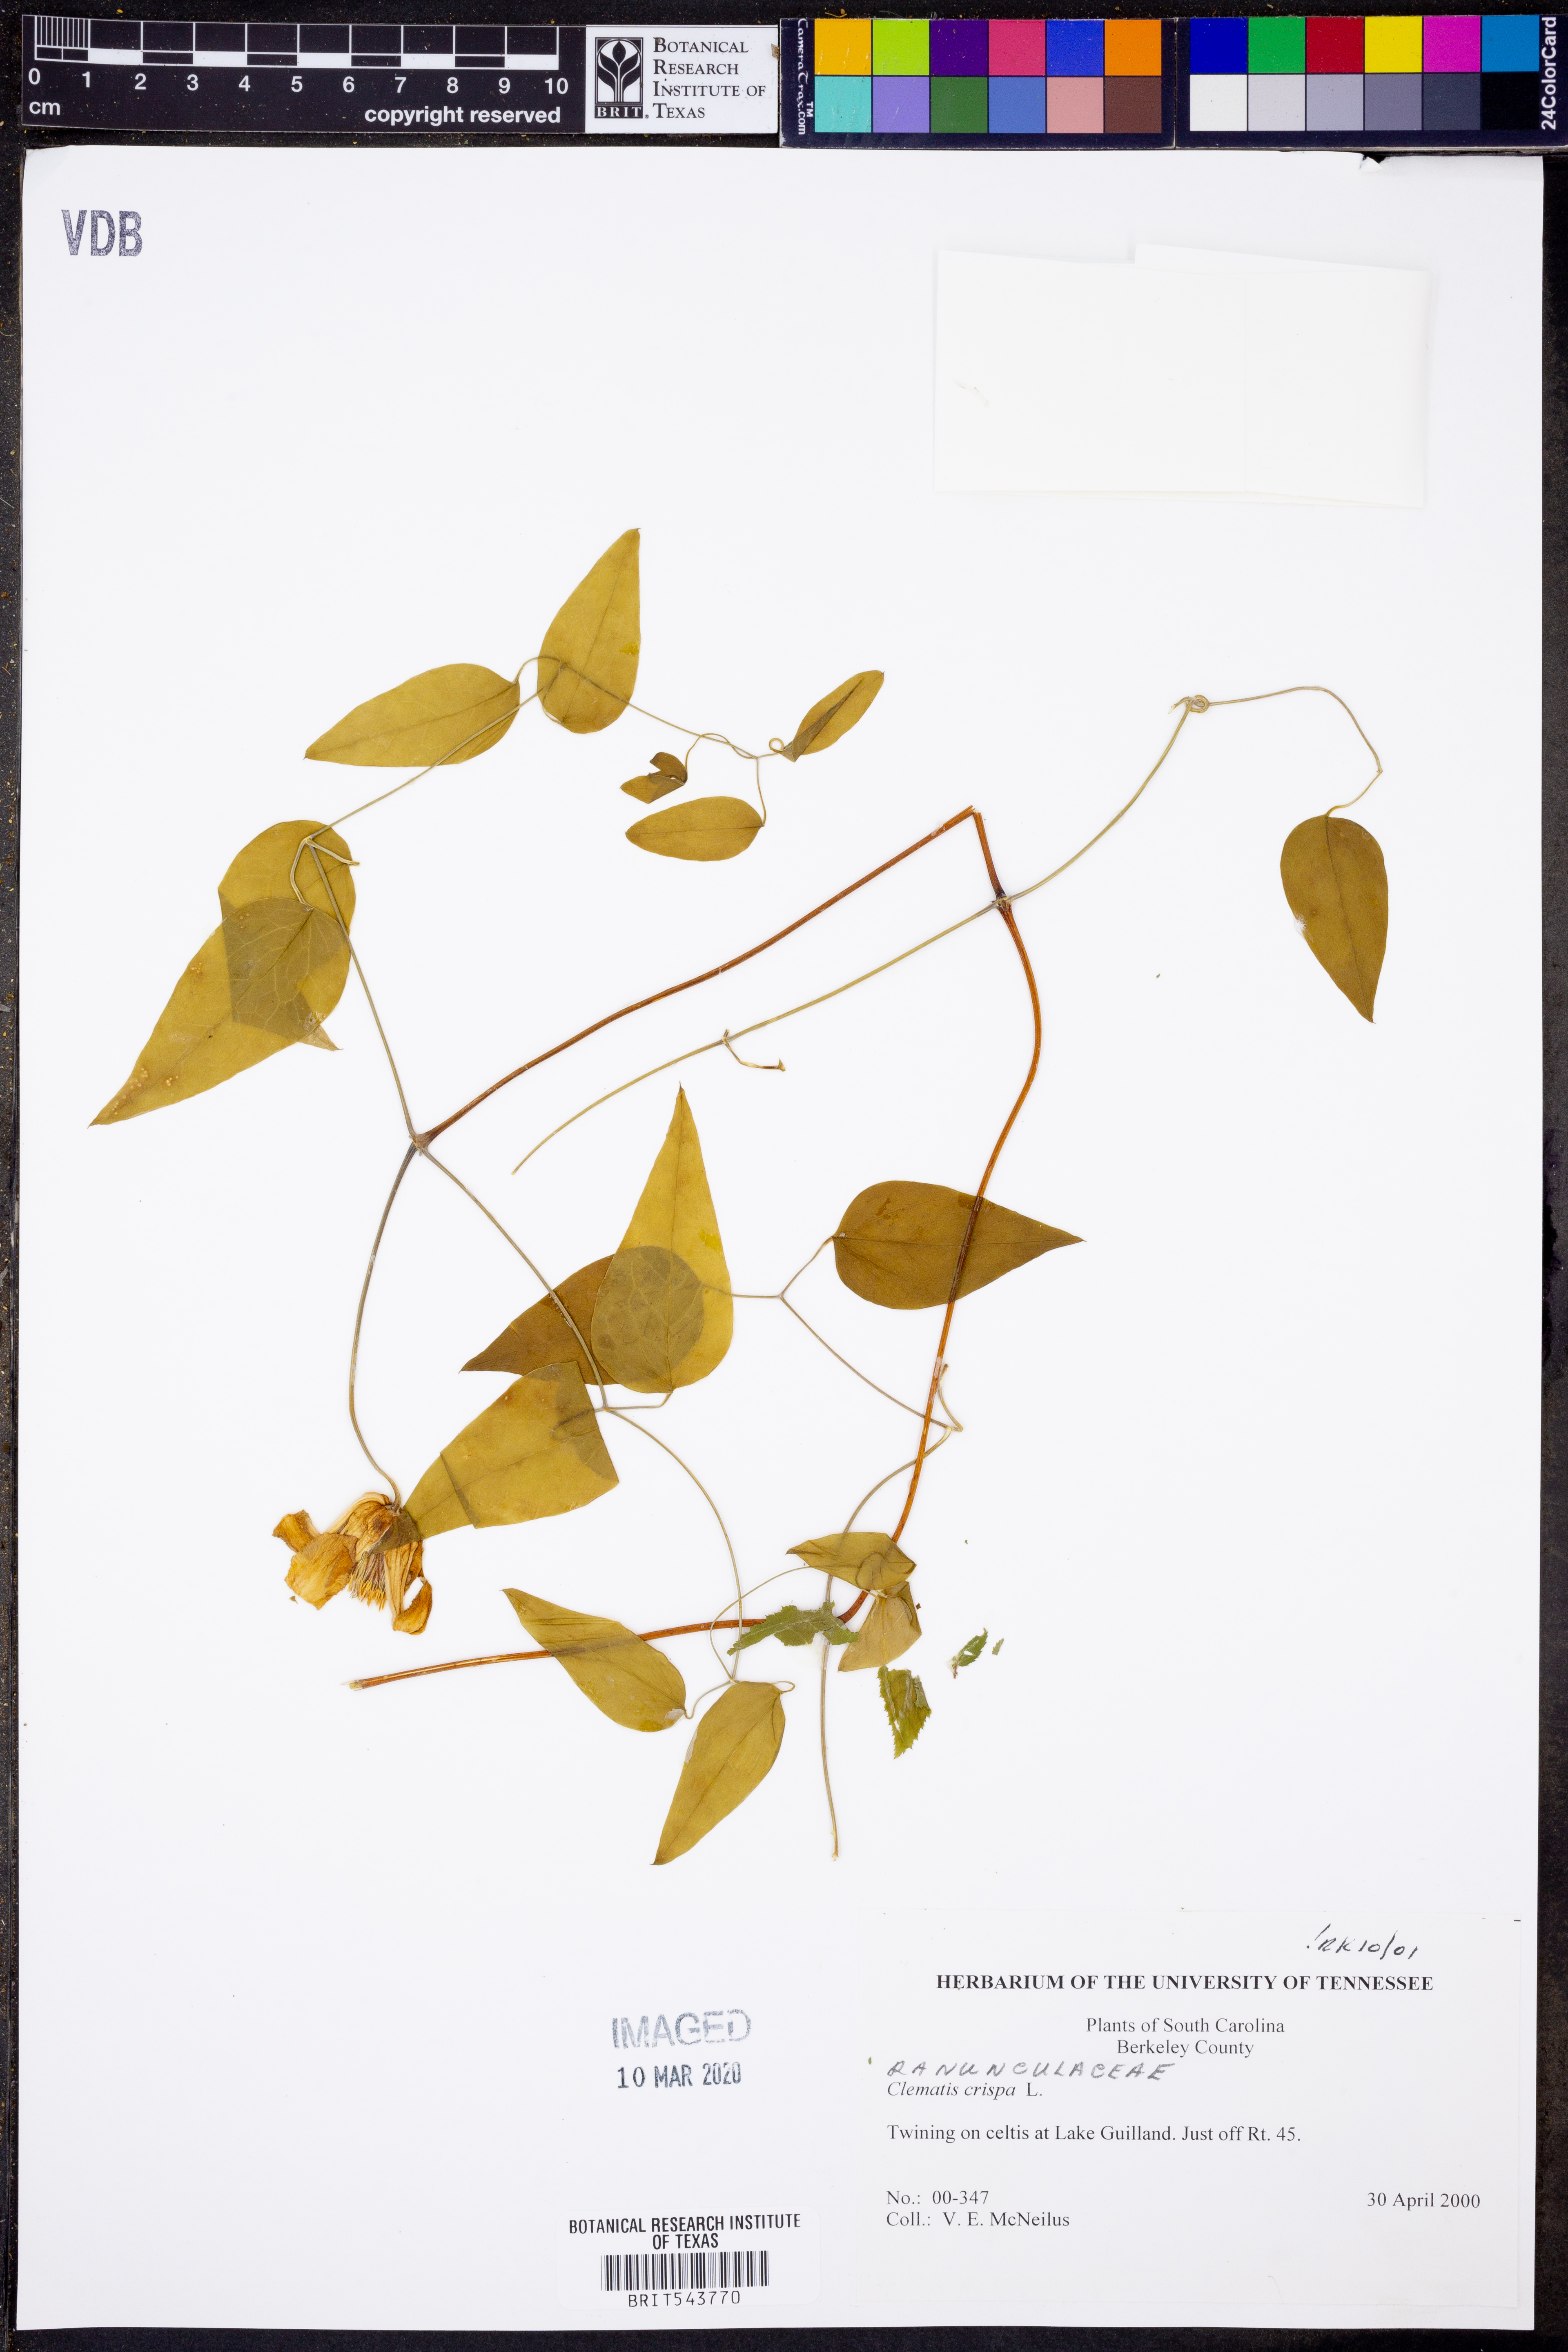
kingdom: Plantae
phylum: Tracheophyta
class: Magnoliopsida
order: Ranunculales
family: Ranunculaceae
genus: Clematis
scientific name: Clematis crispa
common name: Curly clematis
